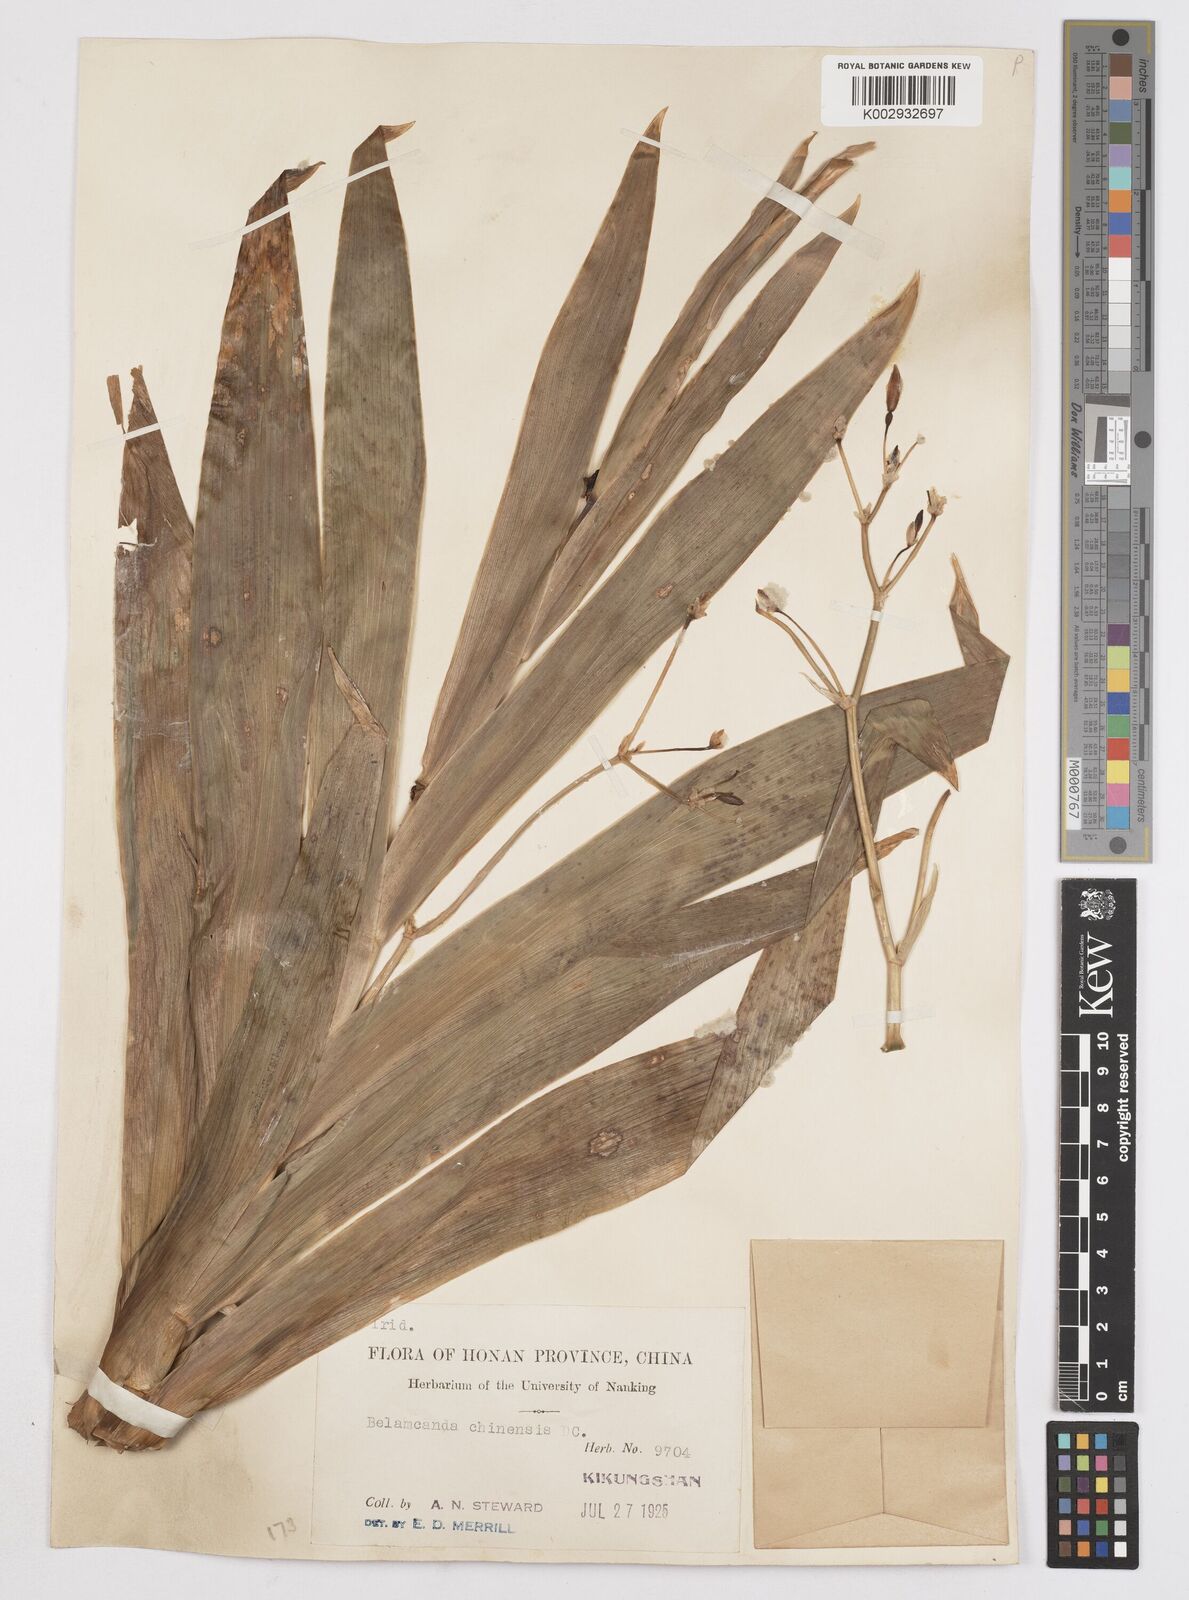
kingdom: Plantae
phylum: Tracheophyta
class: Liliopsida
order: Asparagales
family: Iridaceae
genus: Iris
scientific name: Iris
